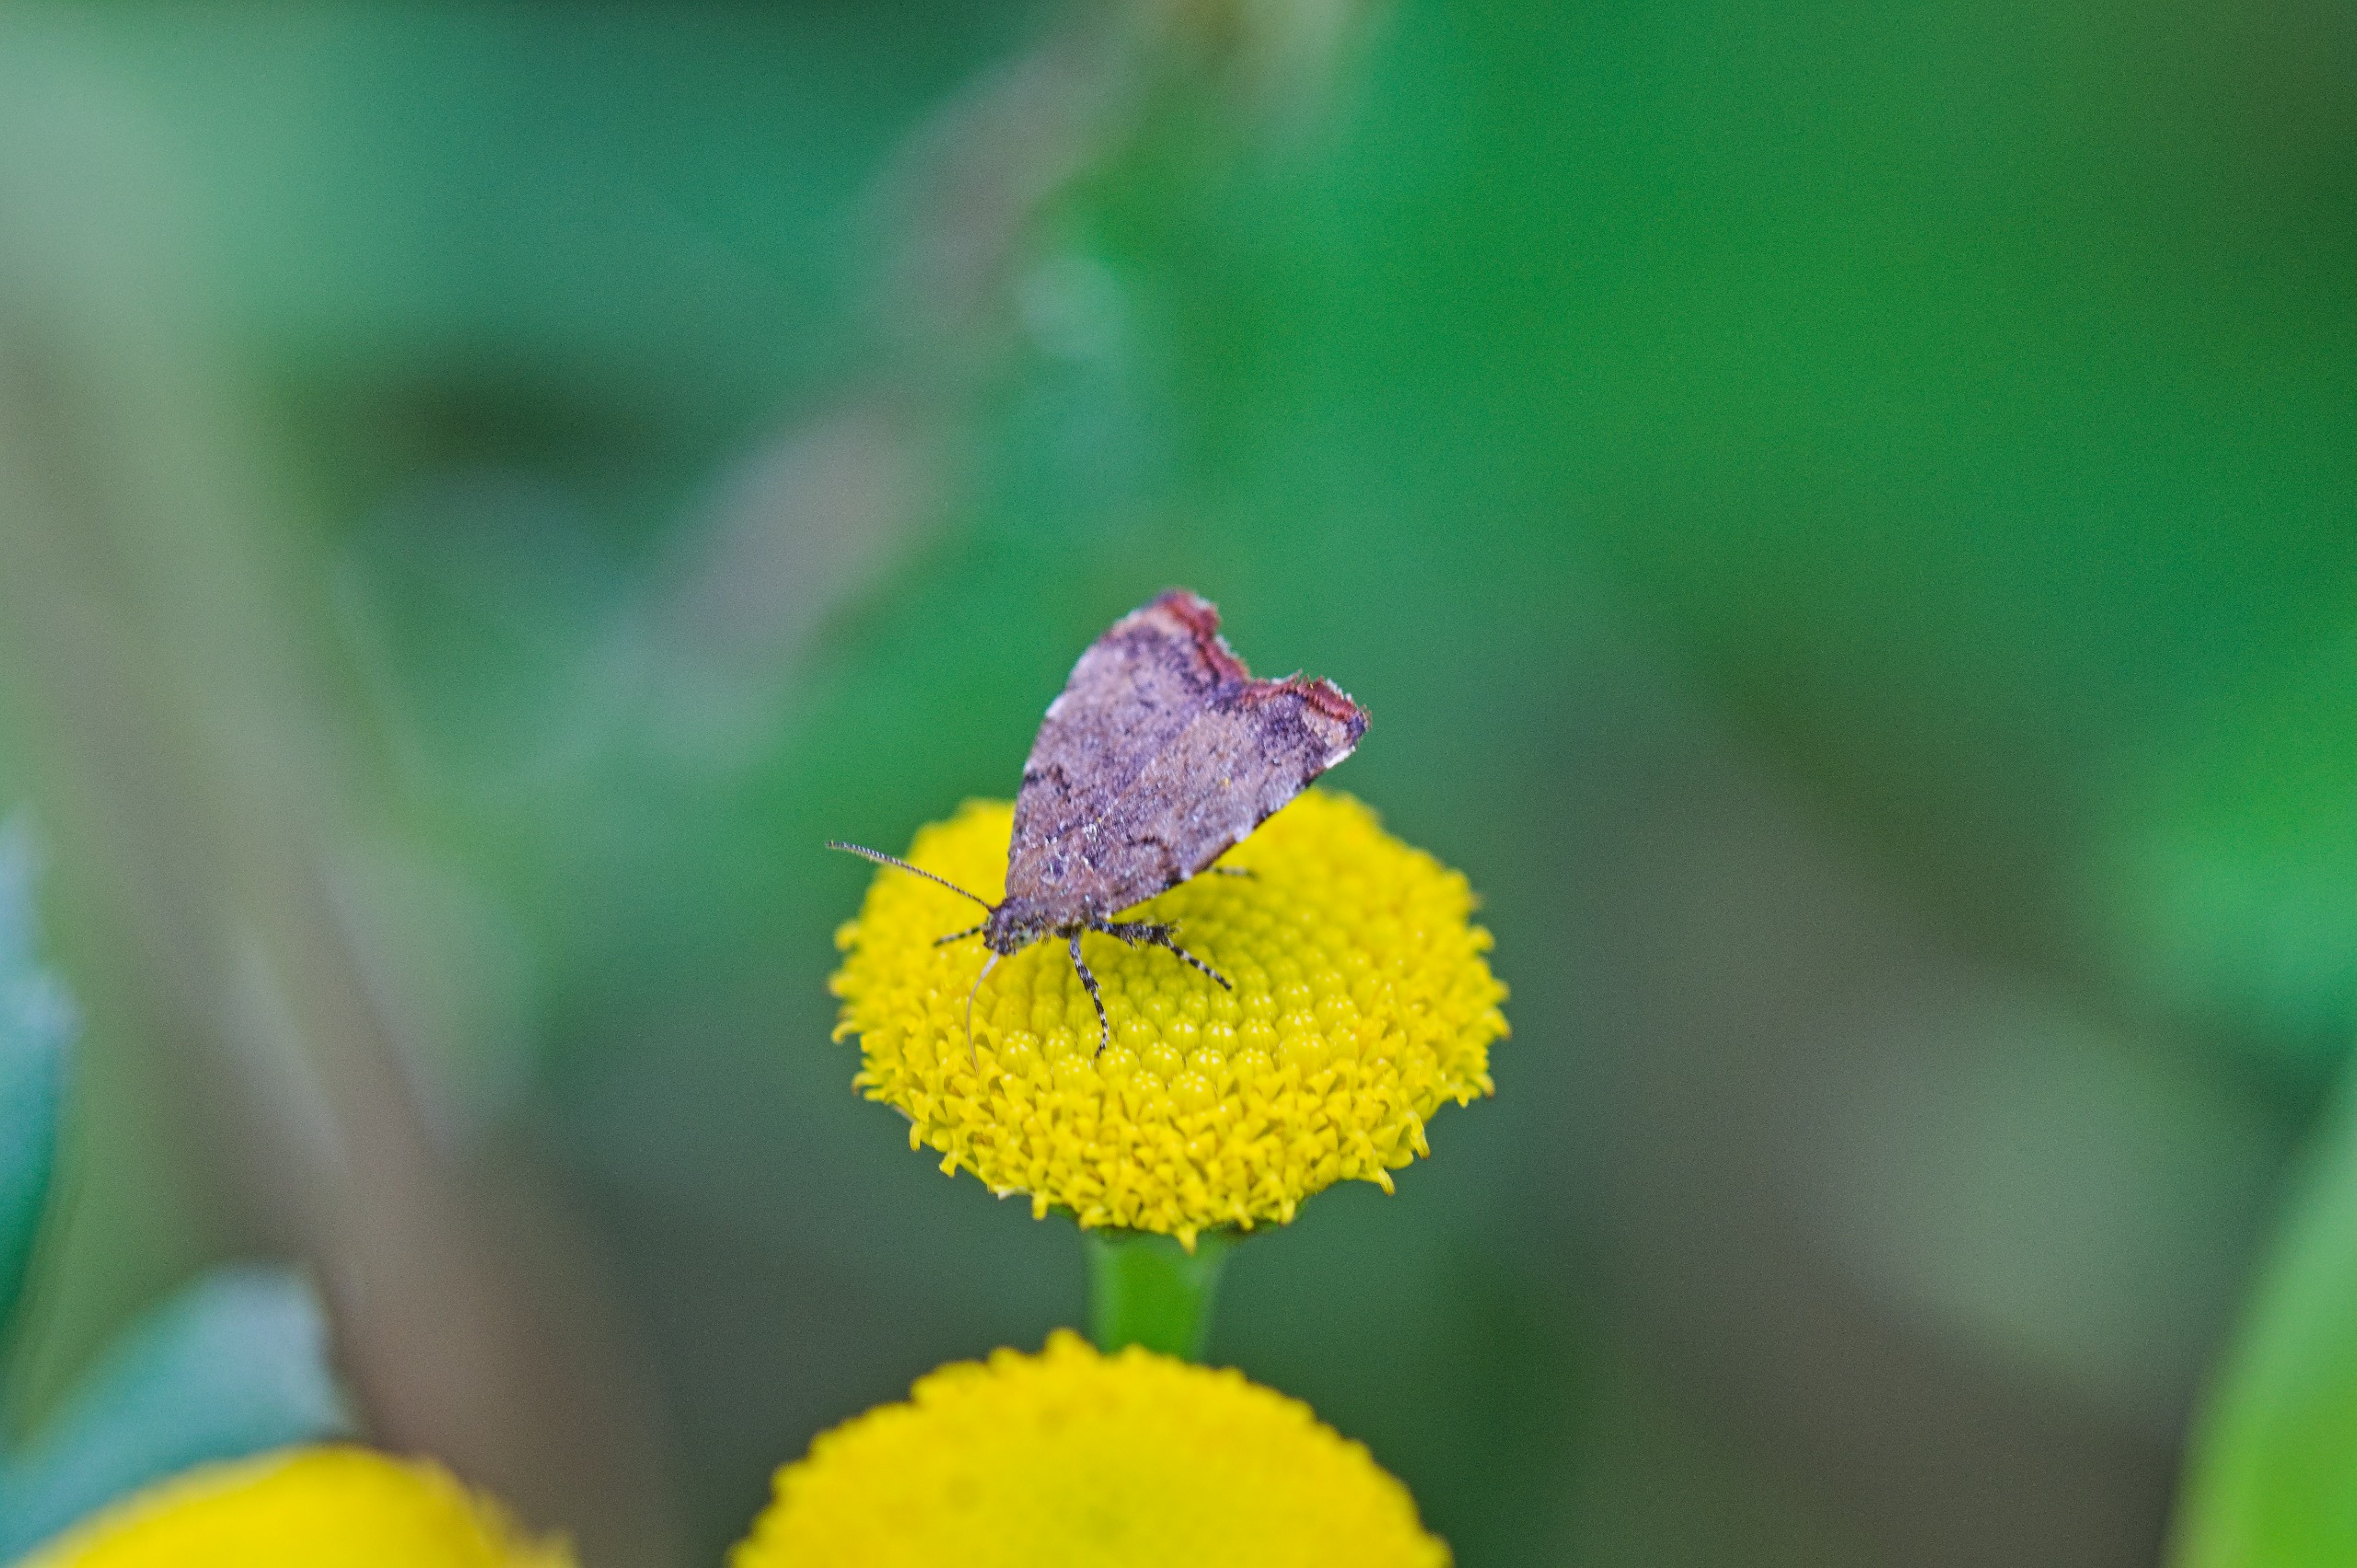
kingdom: Animalia
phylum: Arthropoda
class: Insecta
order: Lepidoptera
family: Choreutidae
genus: Choreutis
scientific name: Choreutis pariana
